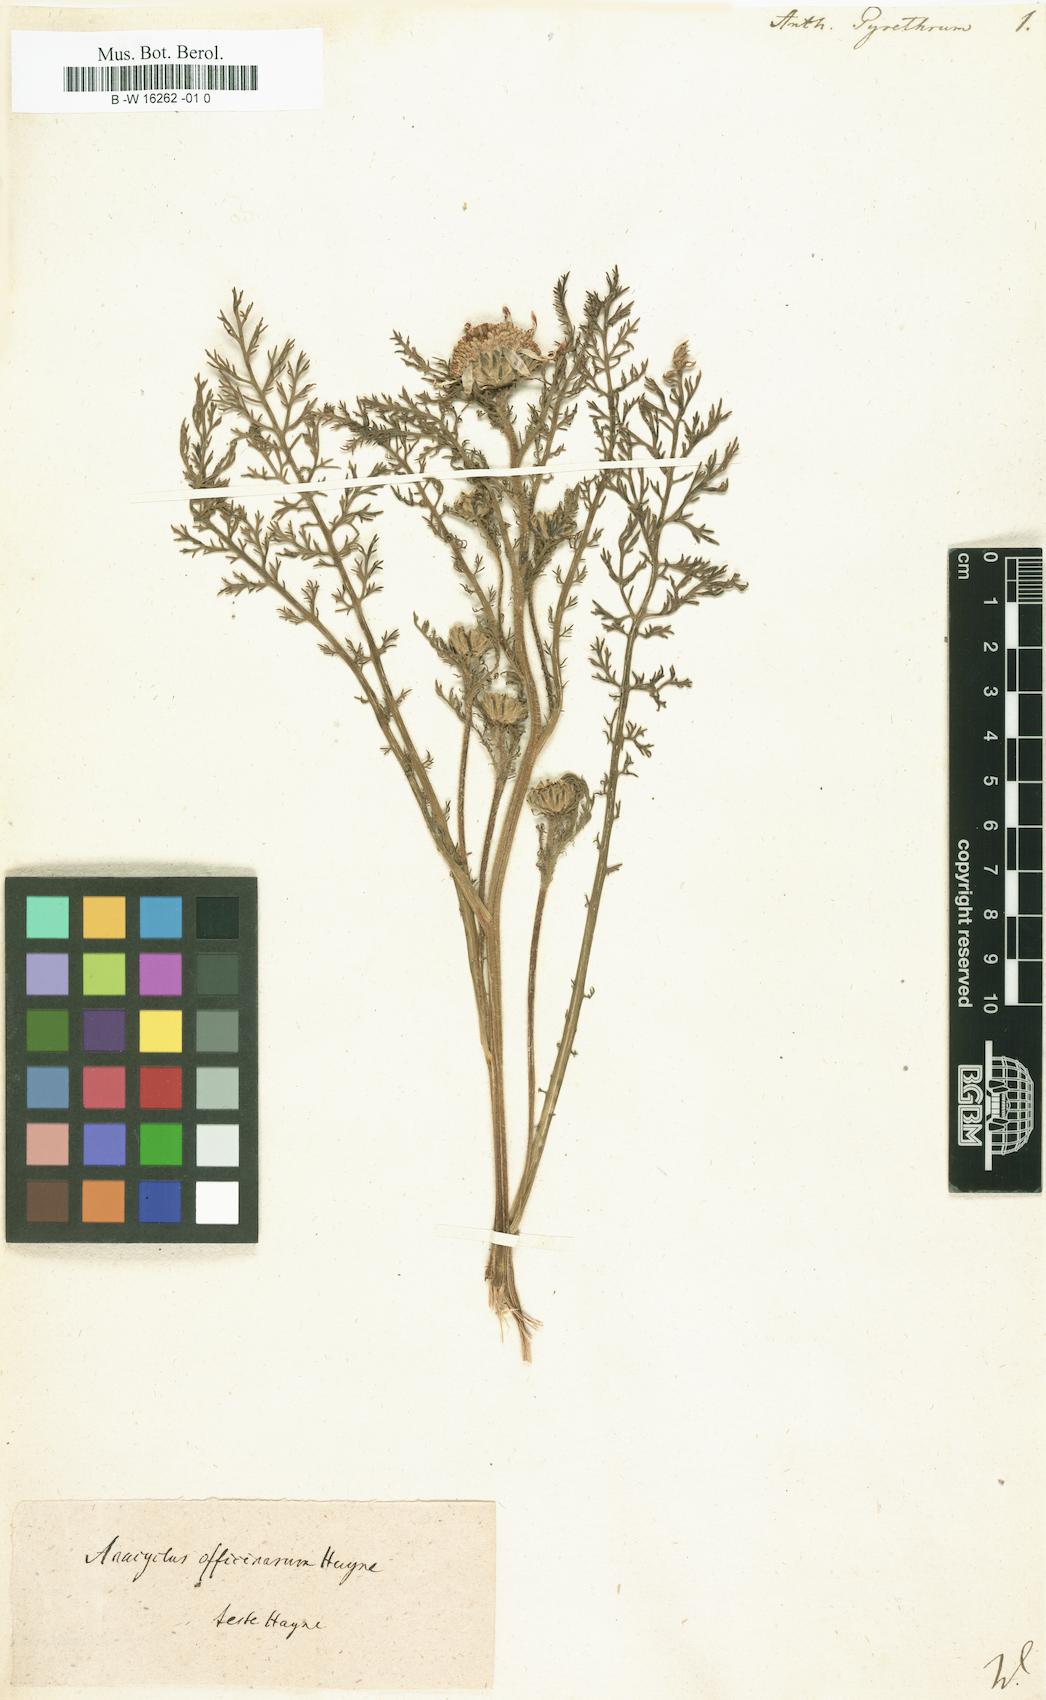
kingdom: Plantae
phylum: Tracheophyta
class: Magnoliopsida
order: Asterales
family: Asteraceae
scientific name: Asteraceae
